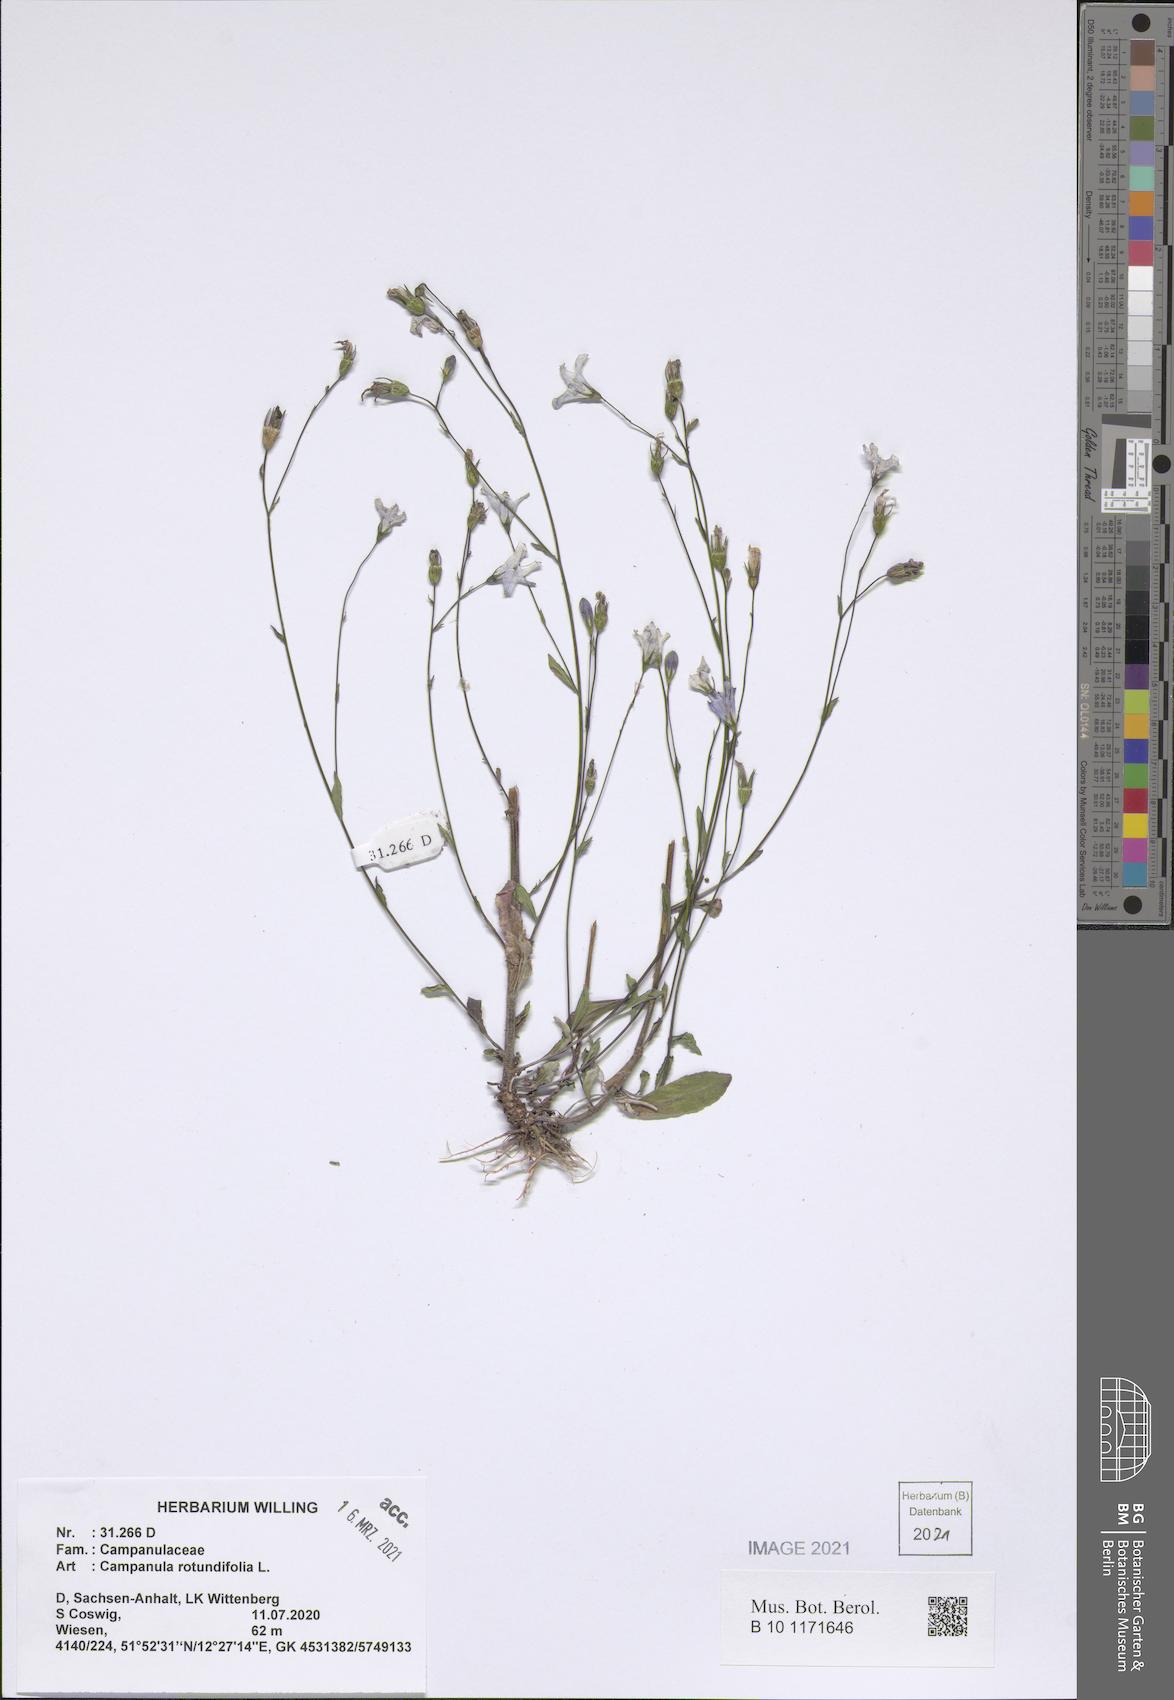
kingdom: Plantae
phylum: Tracheophyta
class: Magnoliopsida
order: Asterales
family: Campanulaceae
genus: Campanula
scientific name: Campanula rotundifolia
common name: Harebell
